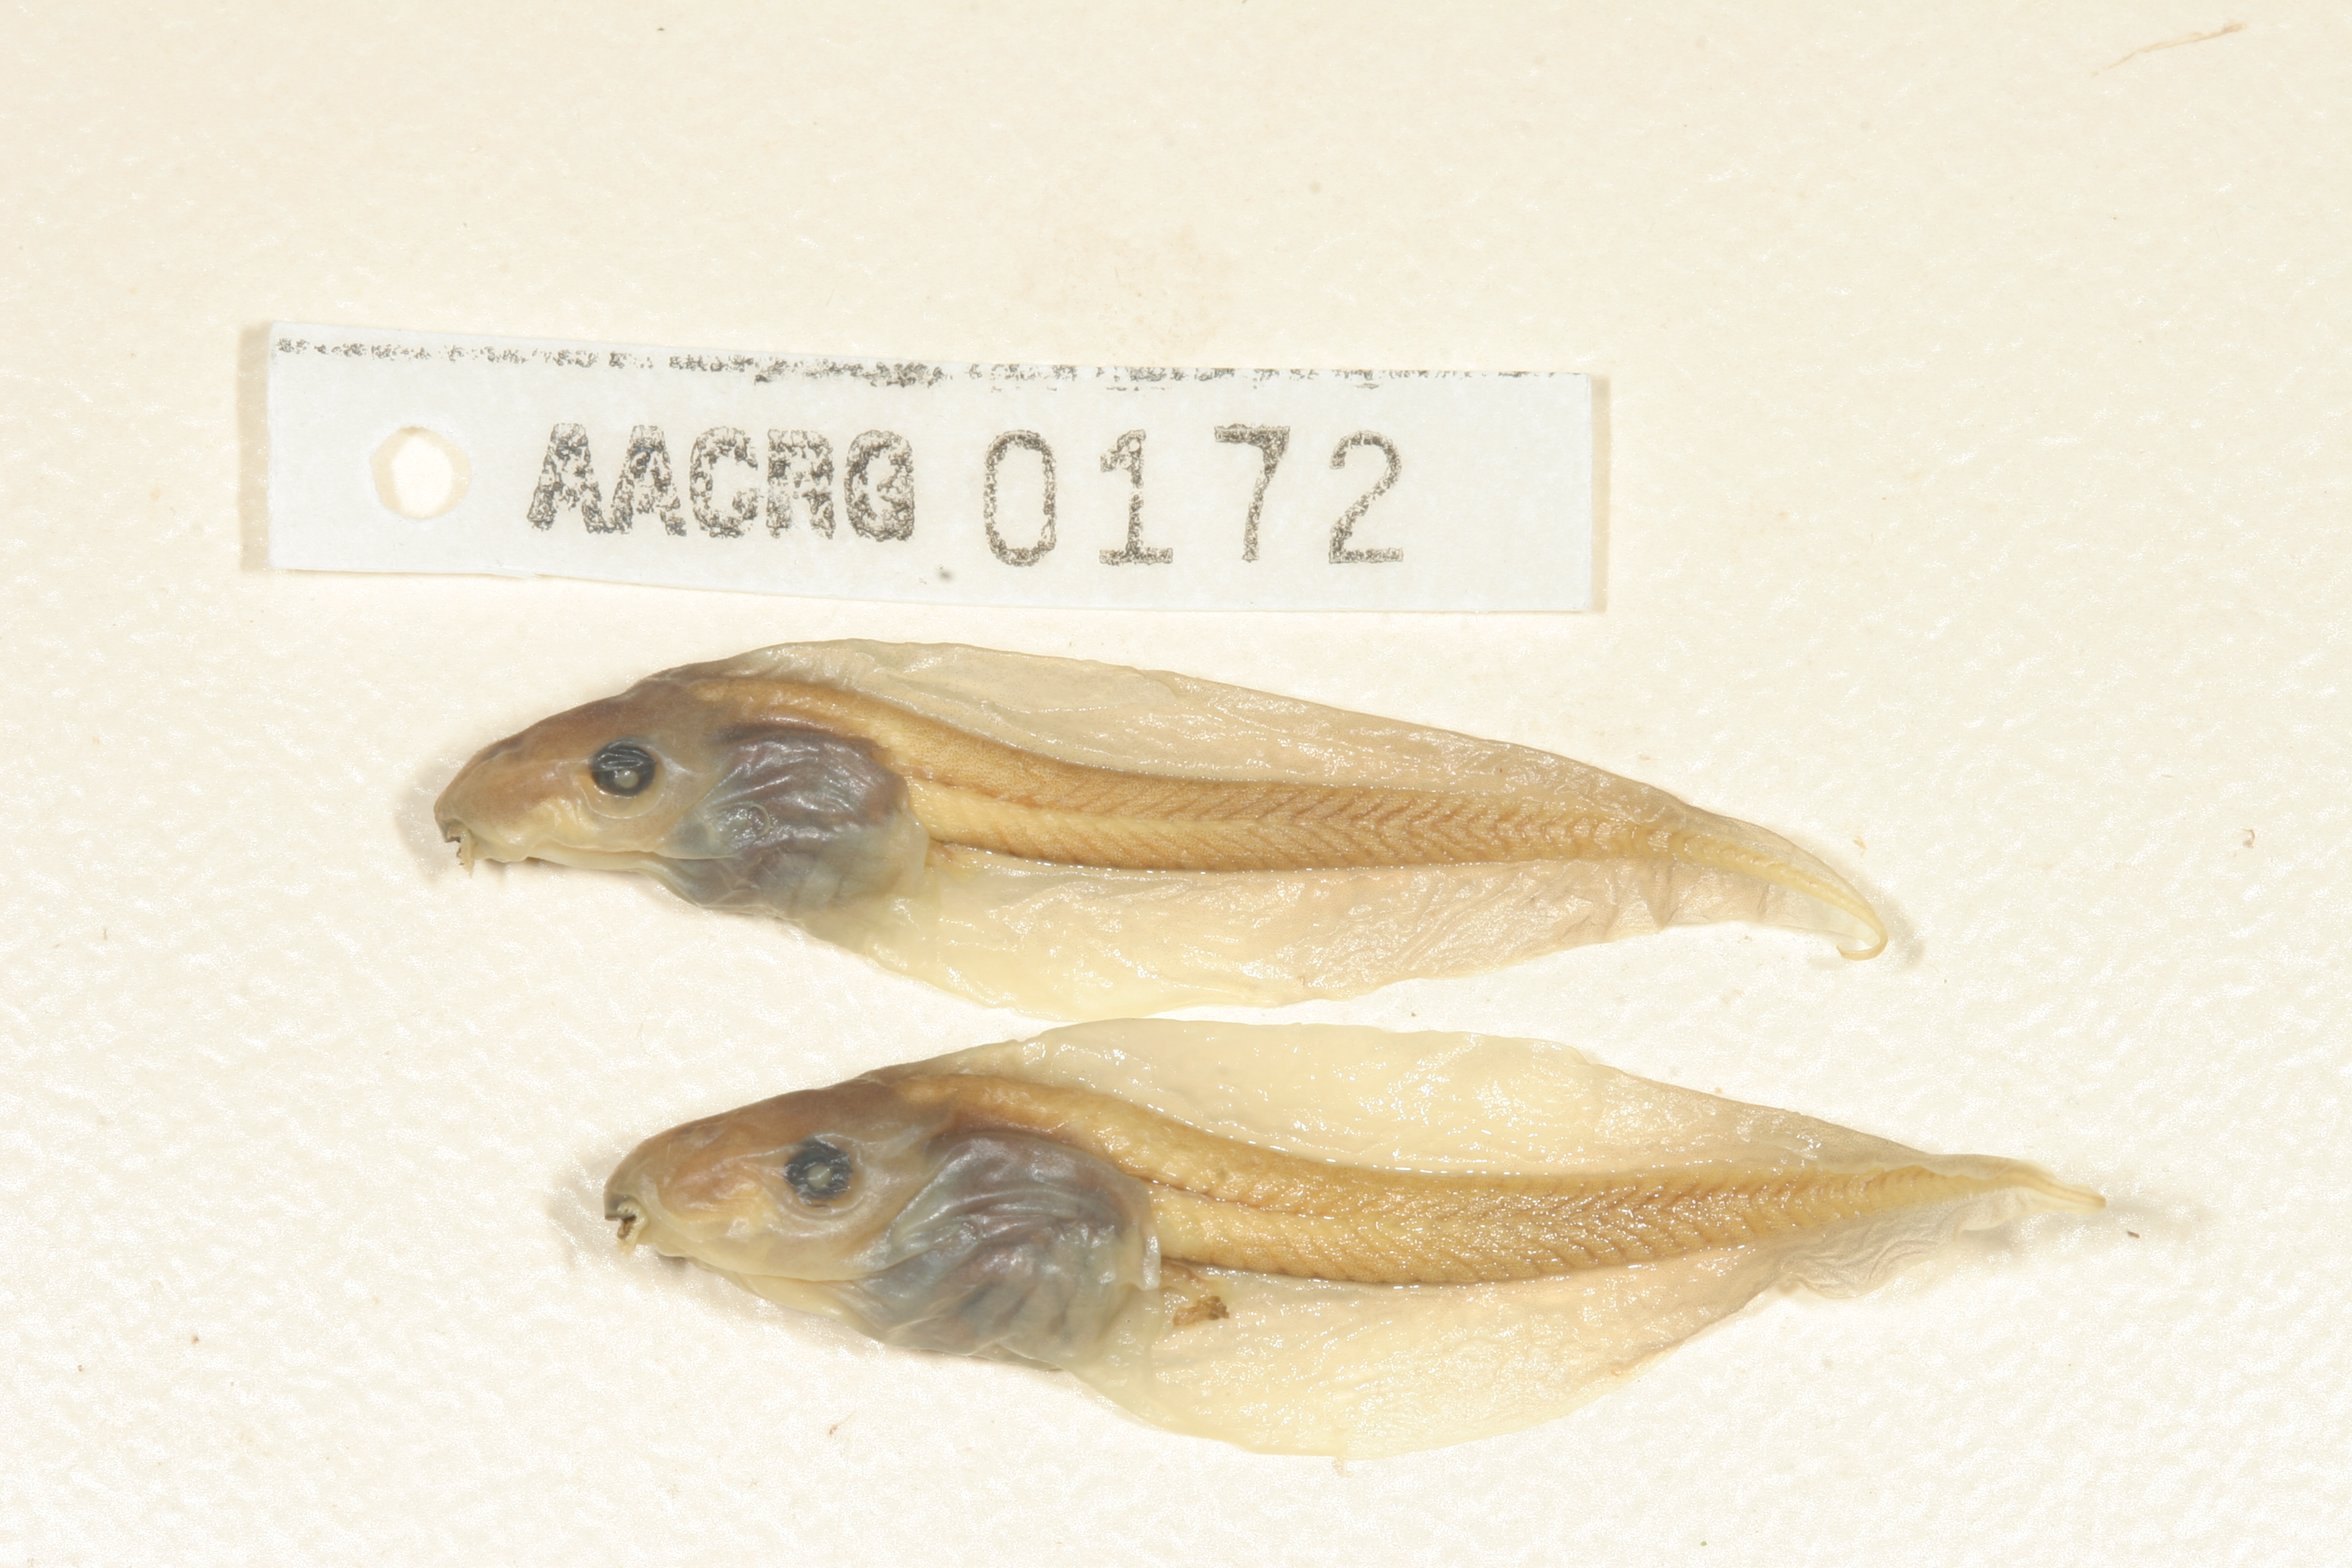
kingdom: Animalia
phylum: Chordata
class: Amphibia
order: Anura
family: Hyperoliidae
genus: Semnodactylus
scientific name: Semnodactylus wealii
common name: Weal's frog
